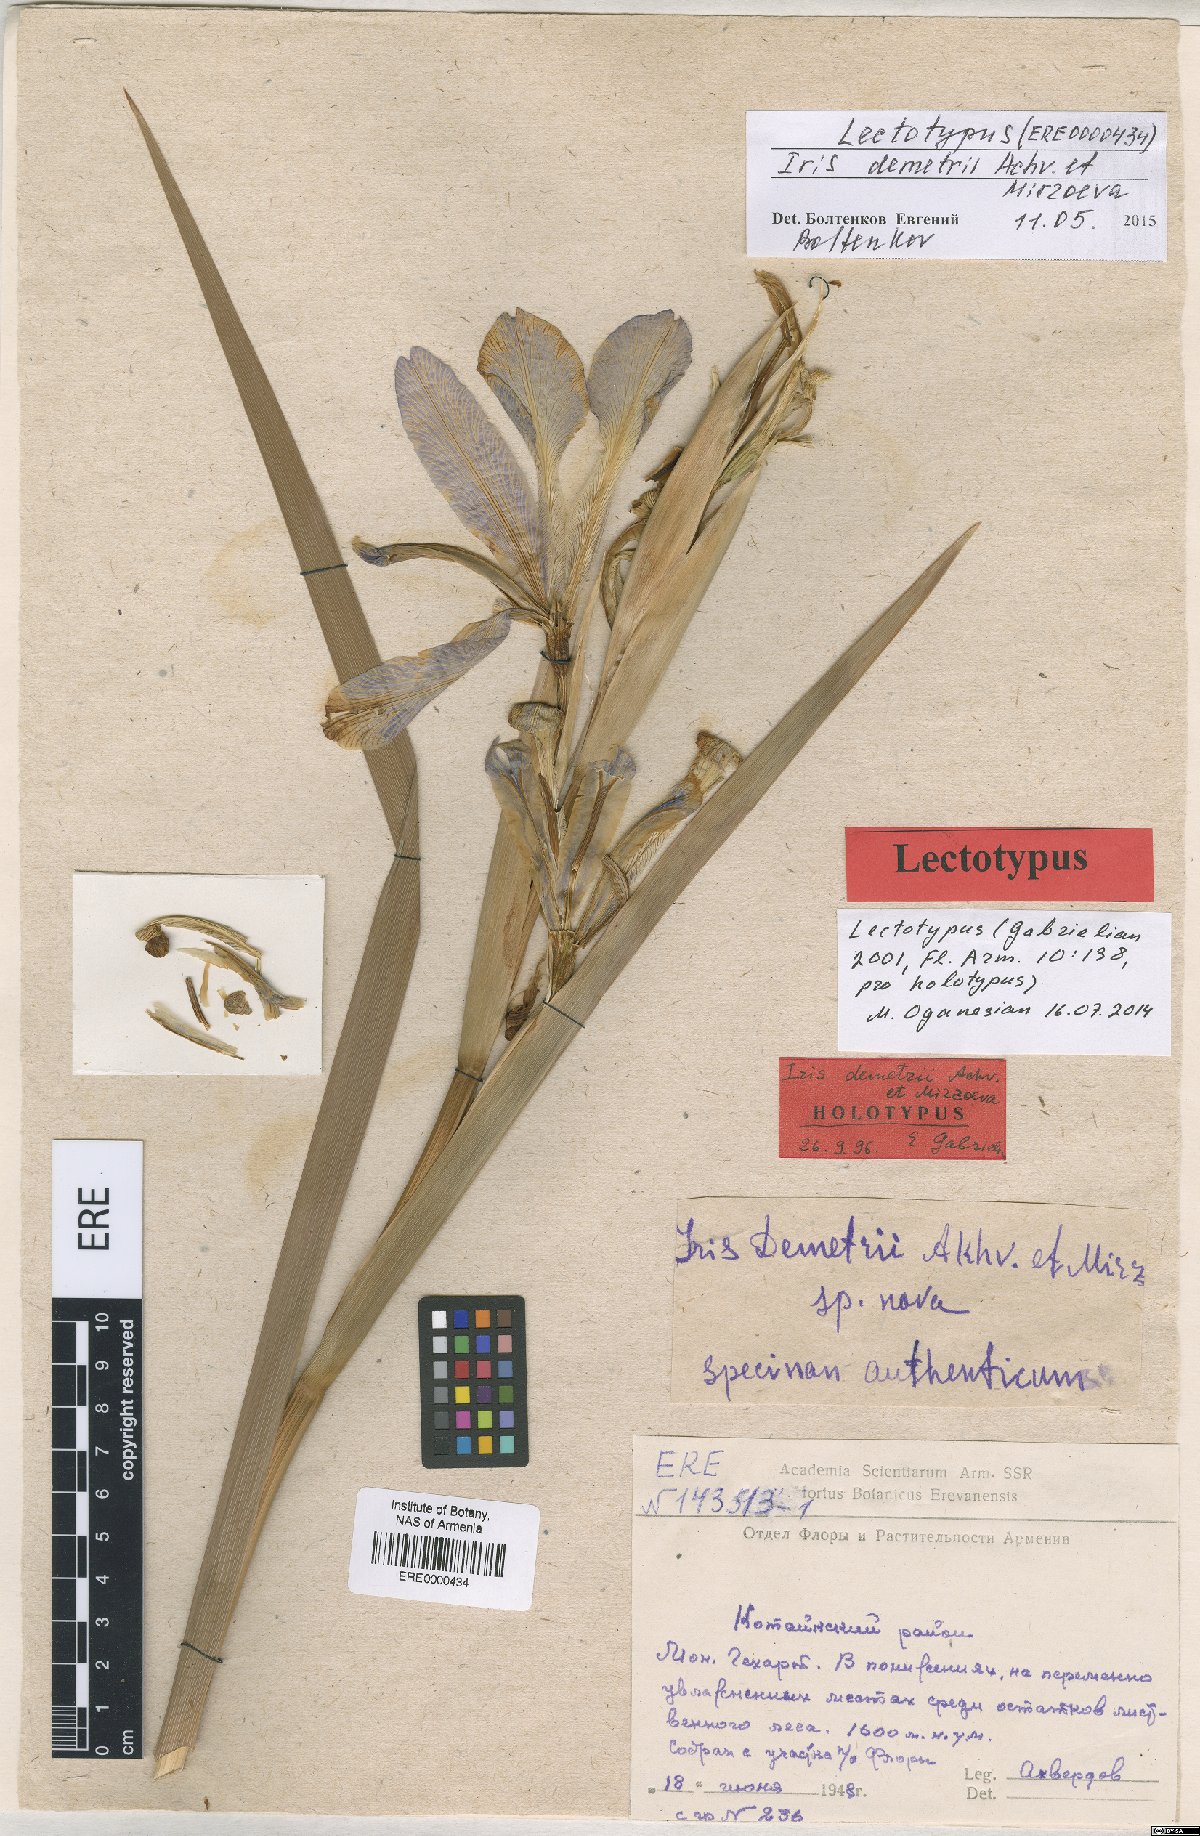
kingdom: Plantae
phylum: Tracheophyta
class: Liliopsida
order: Asparagales
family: Iridaceae
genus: Iris
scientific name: Iris spuria
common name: Blue iris
